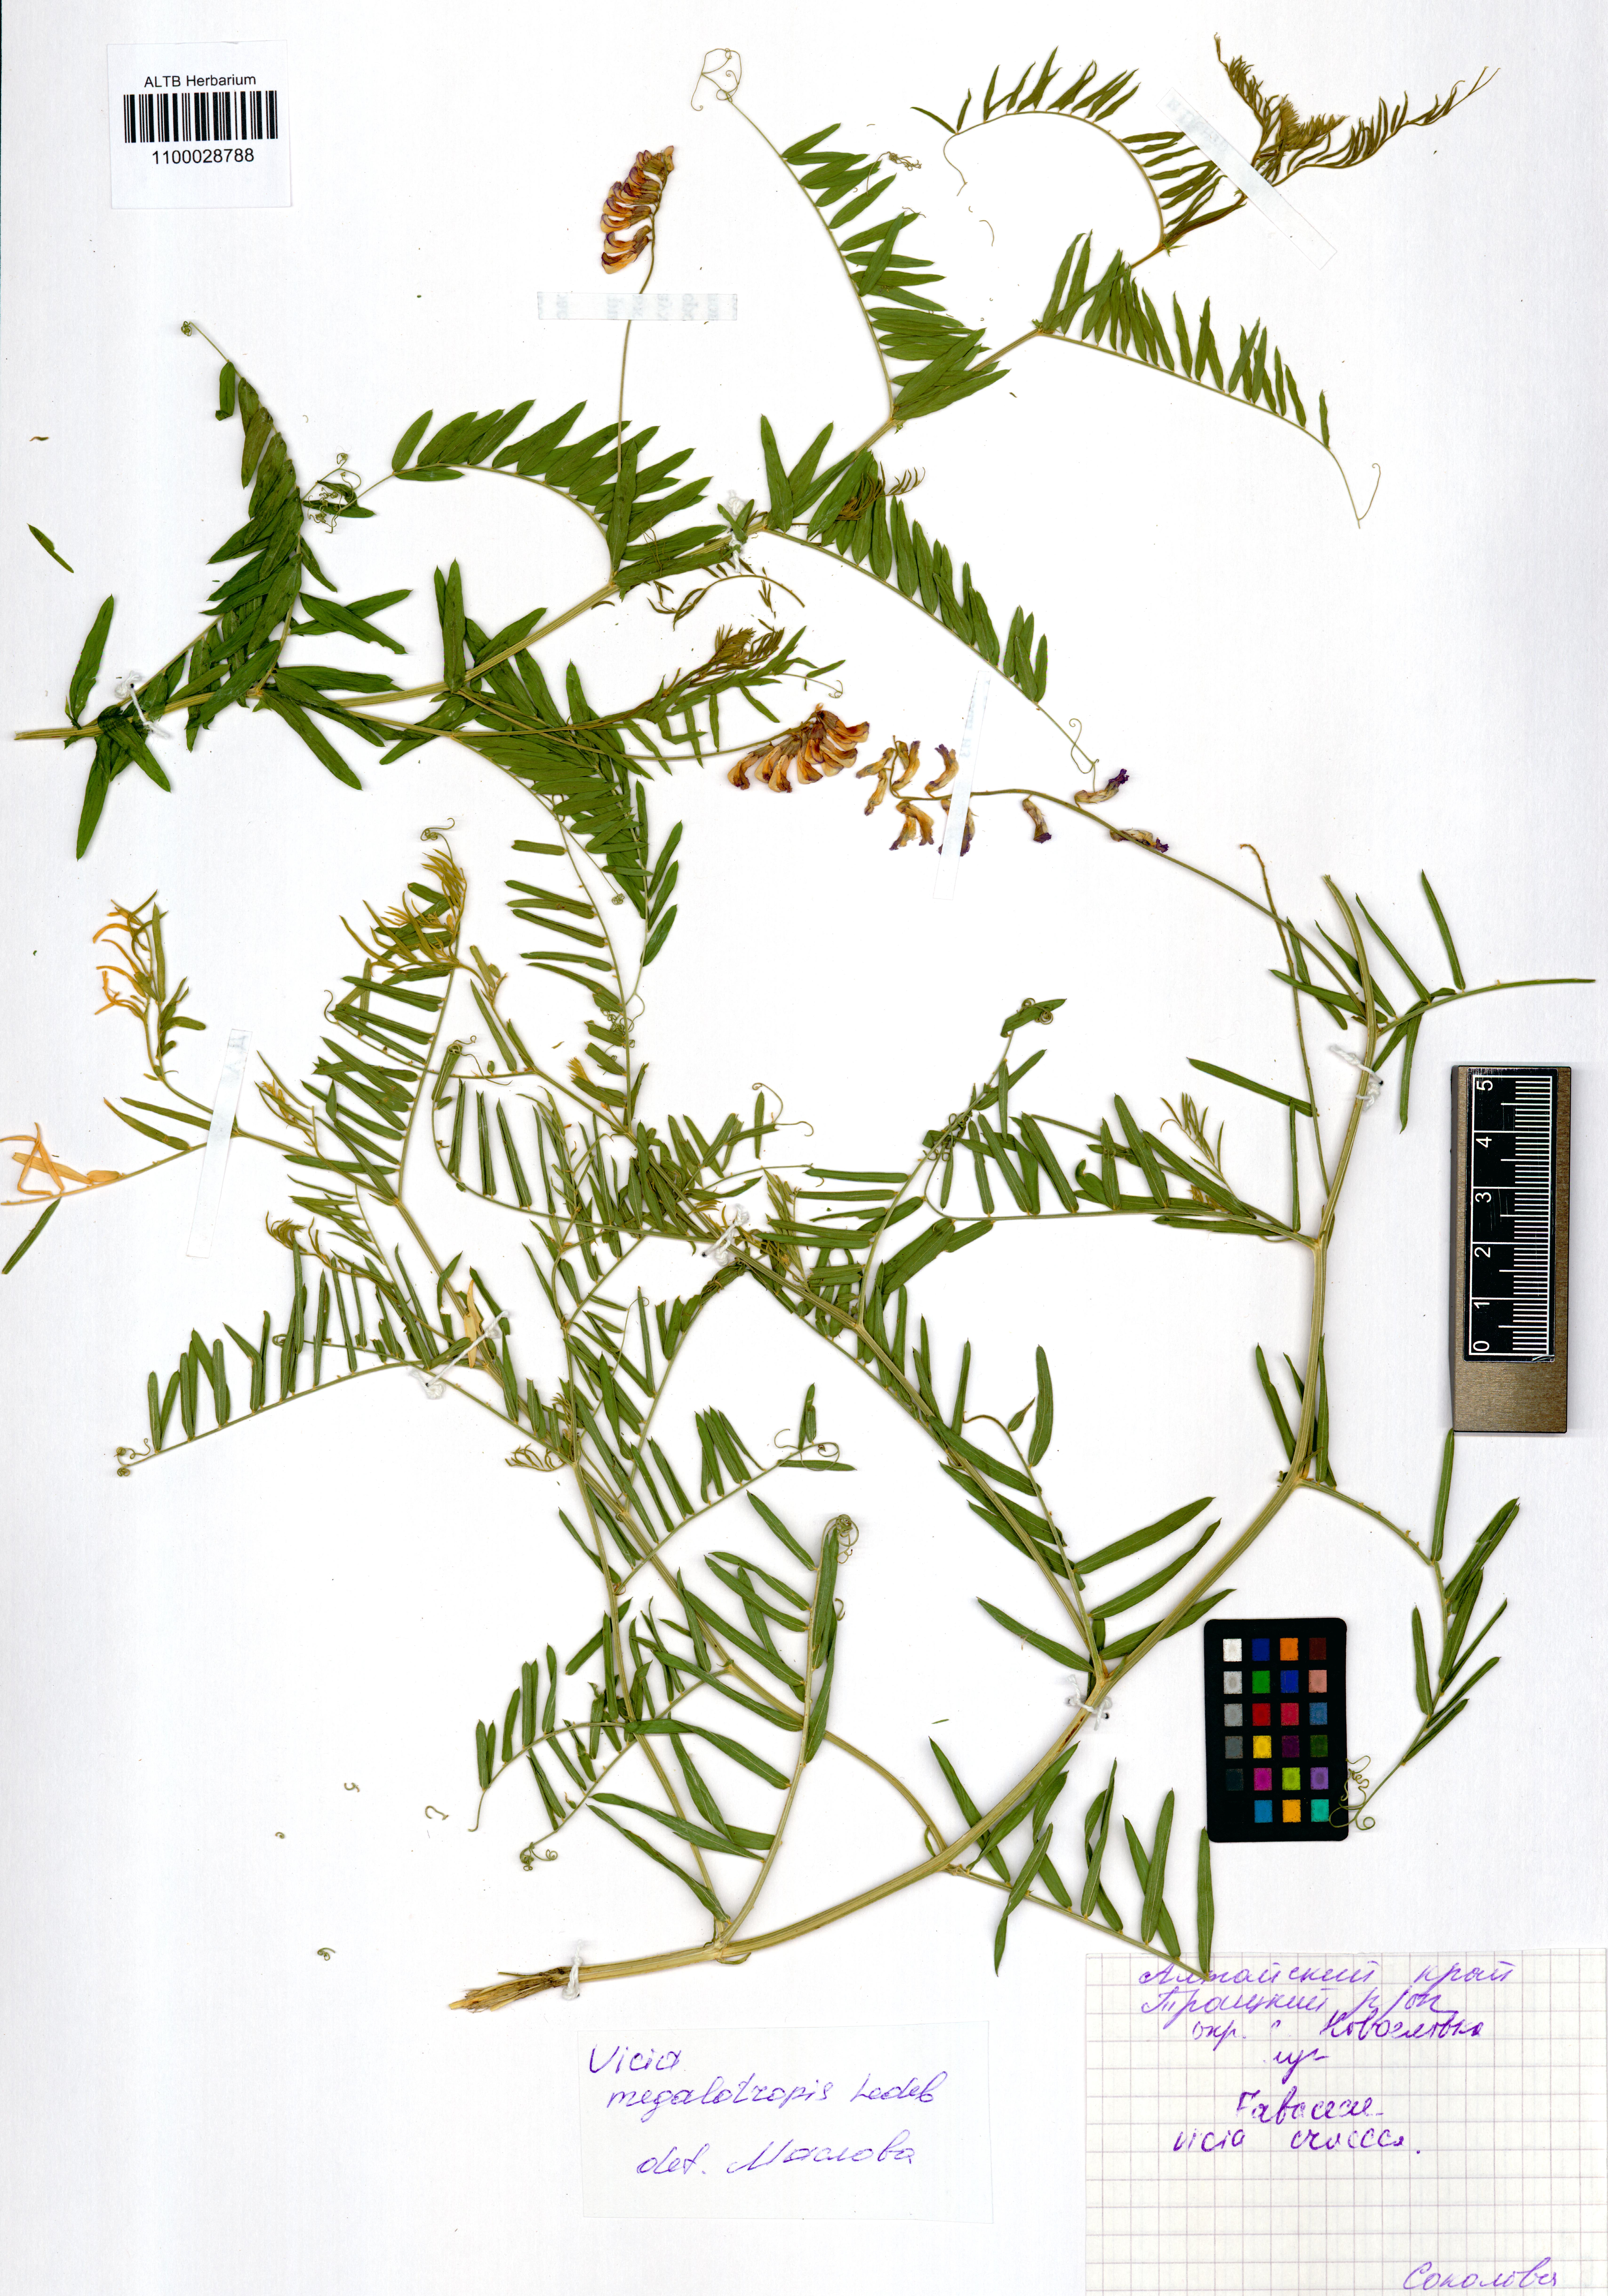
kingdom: Plantae
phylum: Tracheophyta
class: Magnoliopsida
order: Fabales
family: Fabaceae
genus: Vicia
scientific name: Vicia megalotropis
